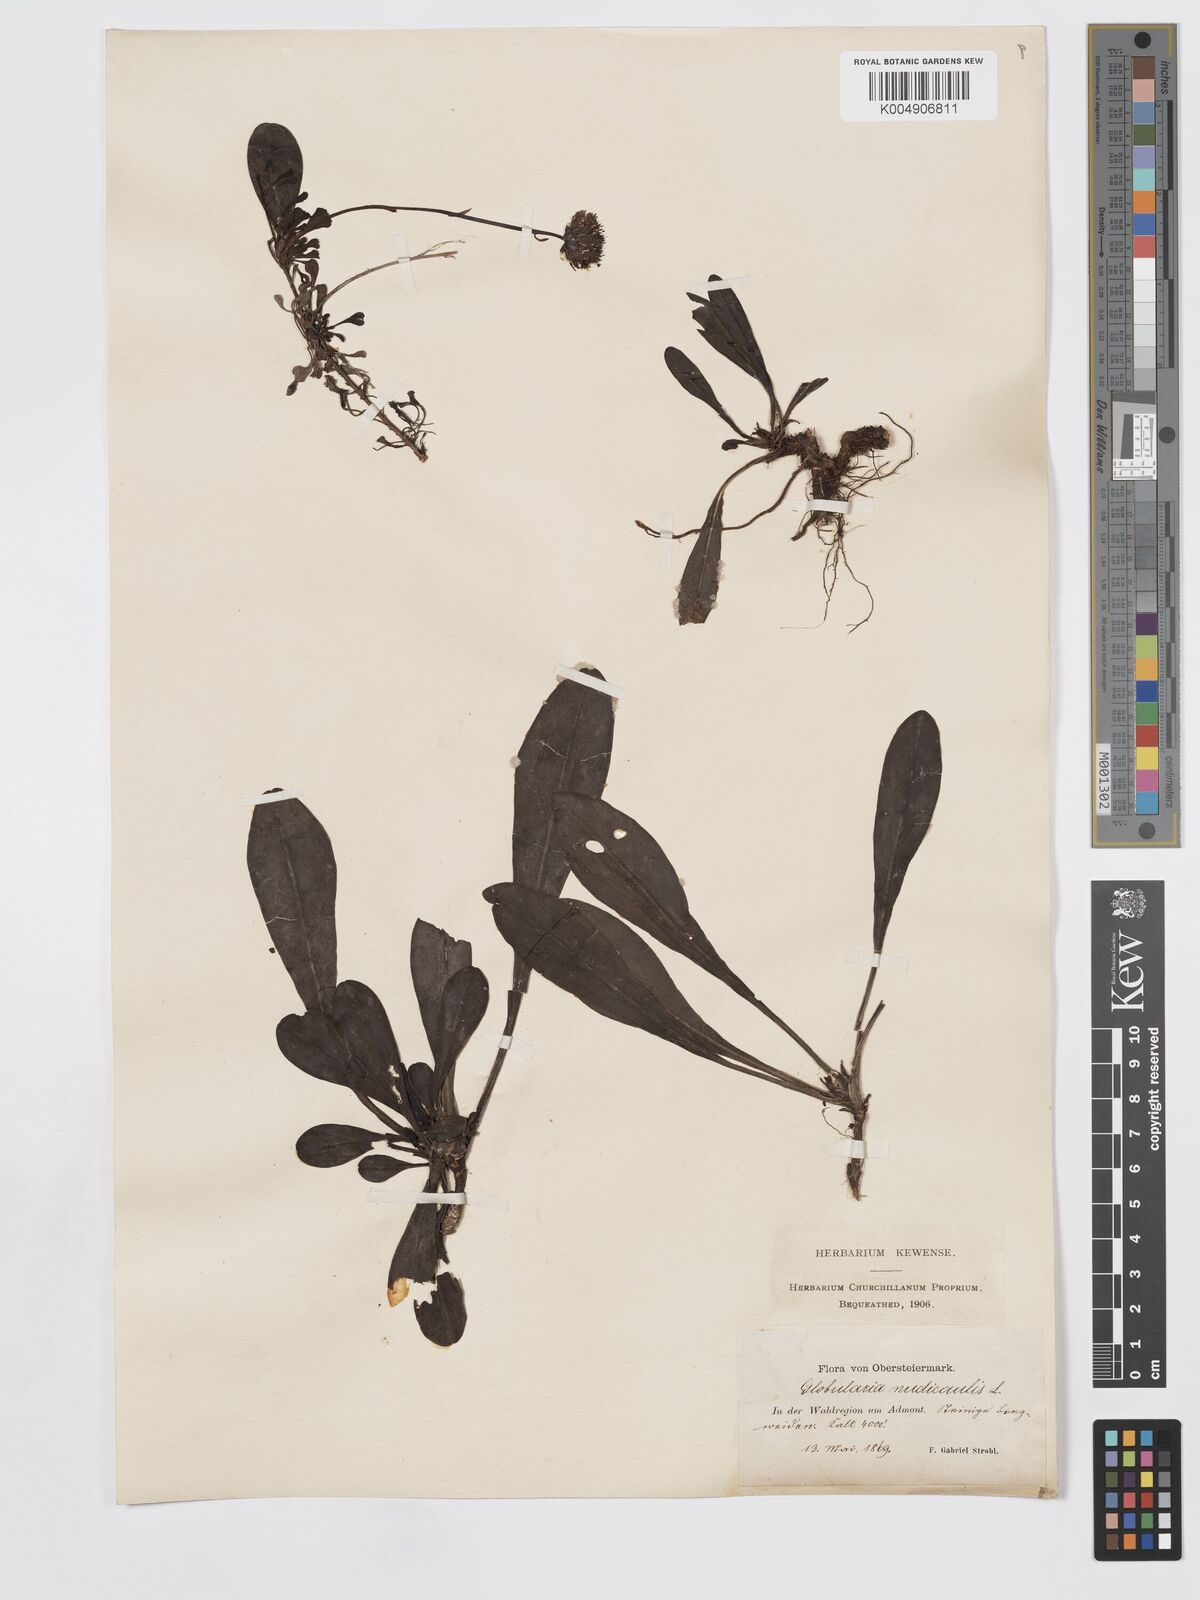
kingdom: Plantae
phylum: Tracheophyta
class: Magnoliopsida
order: Lamiales
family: Plantaginaceae
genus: Globularia
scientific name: Globularia nudicaulis
